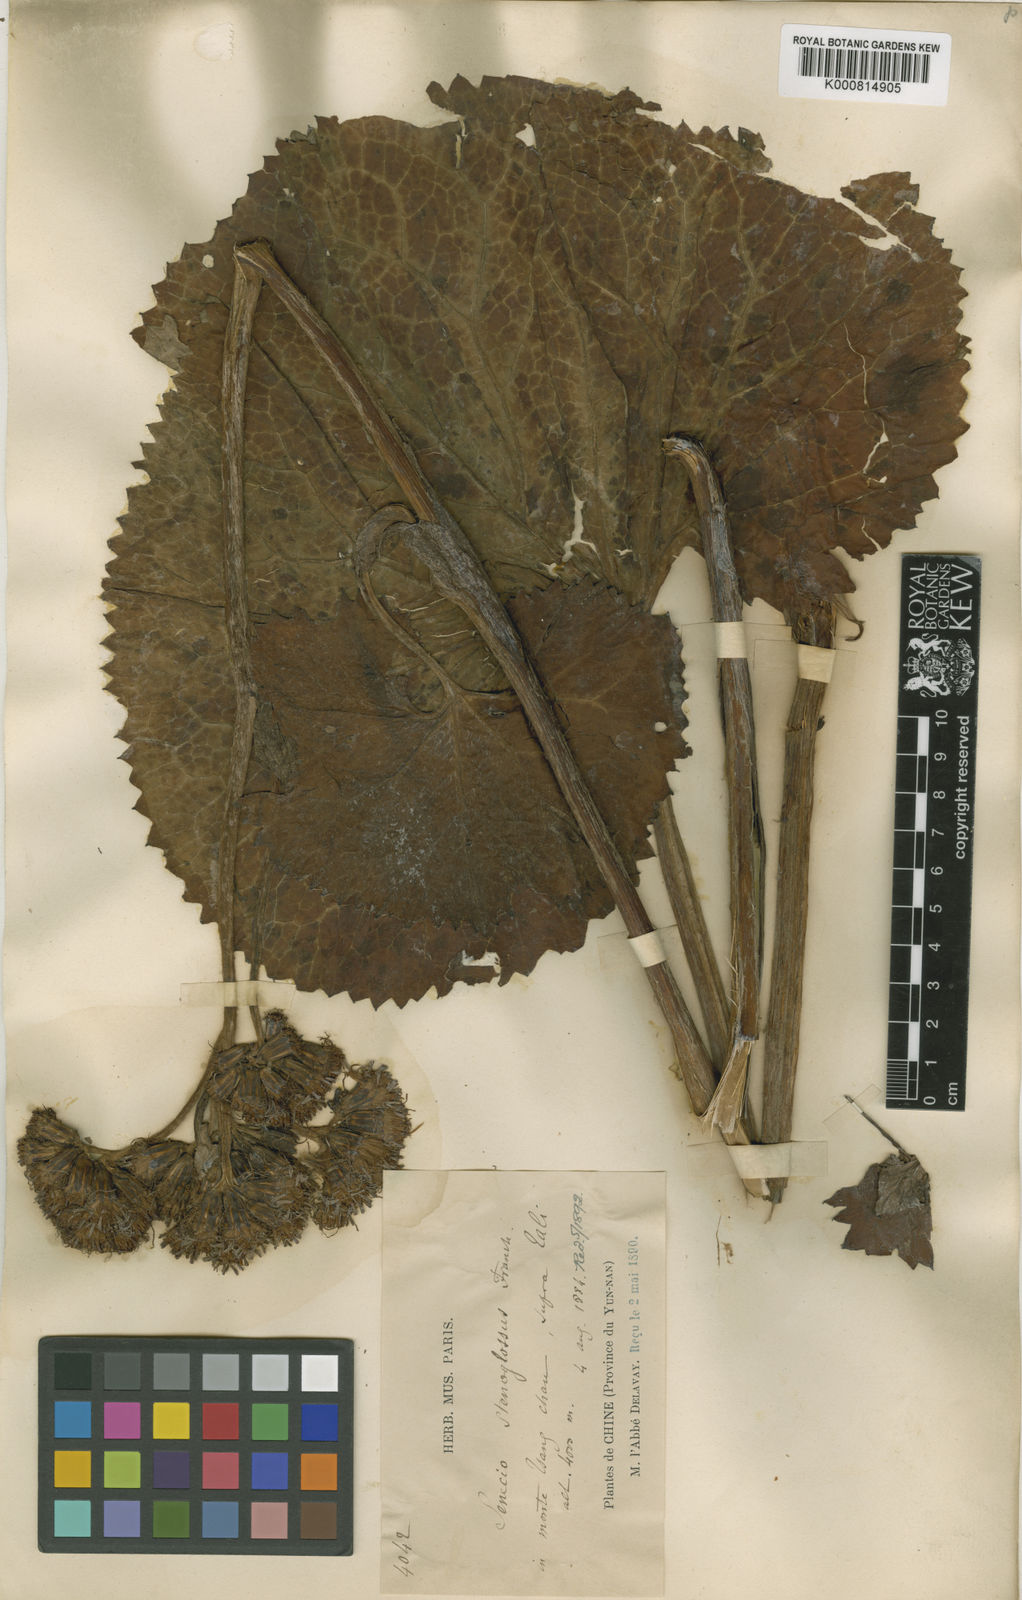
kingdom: Plantae
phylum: Tracheophyta
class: Magnoliopsida
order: Asterales
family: Asteraceae
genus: Ligularia
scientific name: Ligularia stenoglossa
